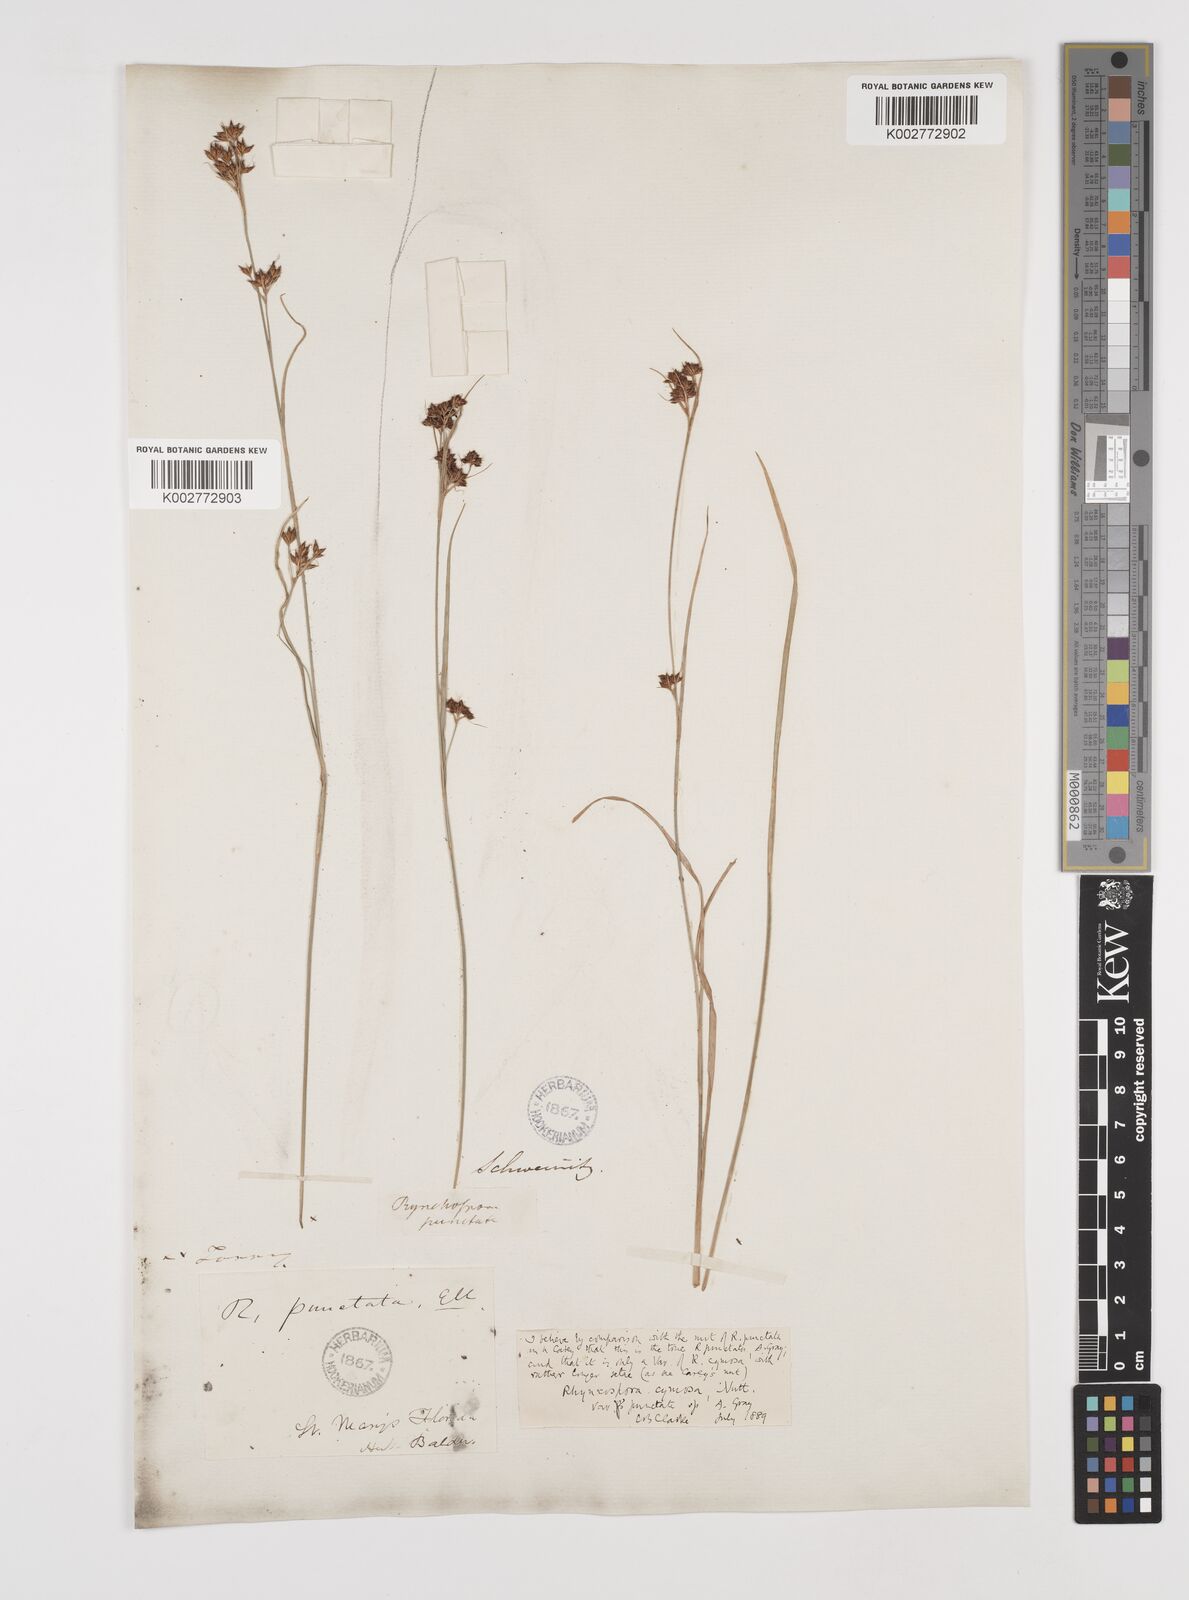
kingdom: Plantae
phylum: Tracheophyta
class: Liliopsida
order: Poales
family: Cyperaceae
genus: Scirpus
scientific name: Scirpus polyphyllus
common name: Leafy bulrush
